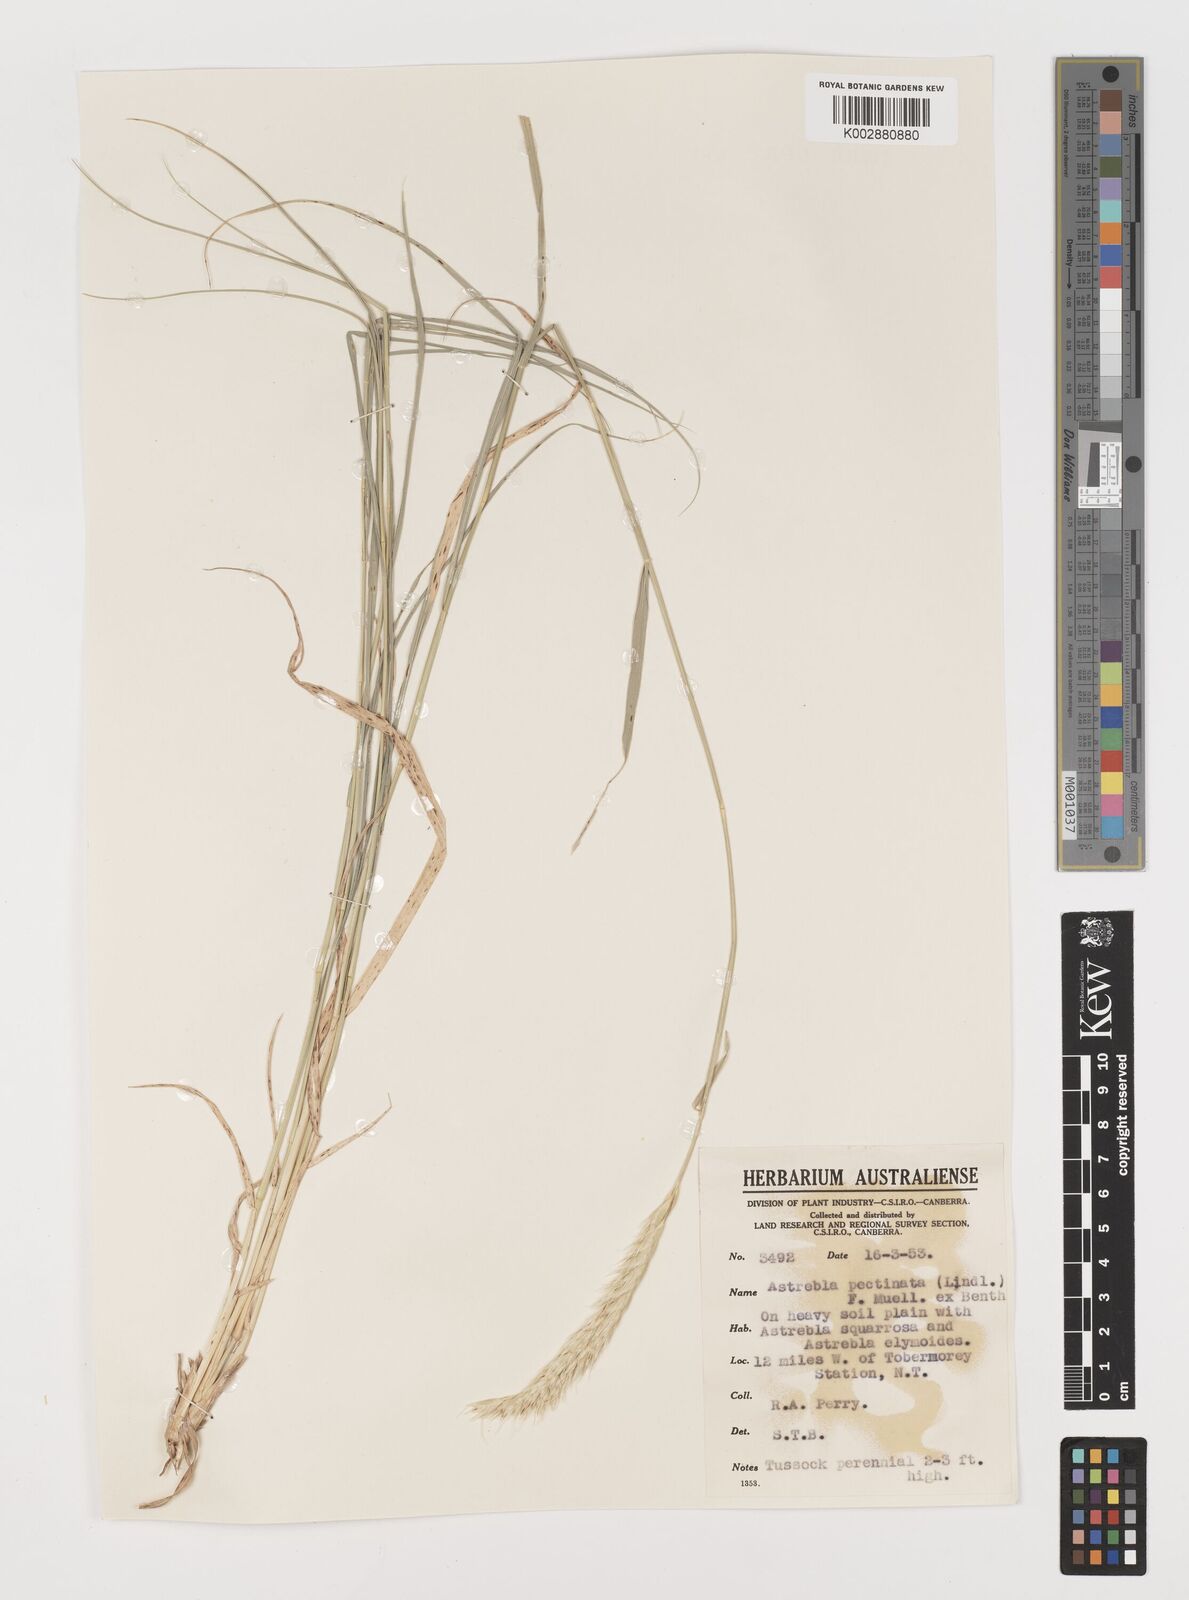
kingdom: Plantae
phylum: Tracheophyta
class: Liliopsida
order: Poales
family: Poaceae
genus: Astrebla
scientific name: Astrebla pectinata
